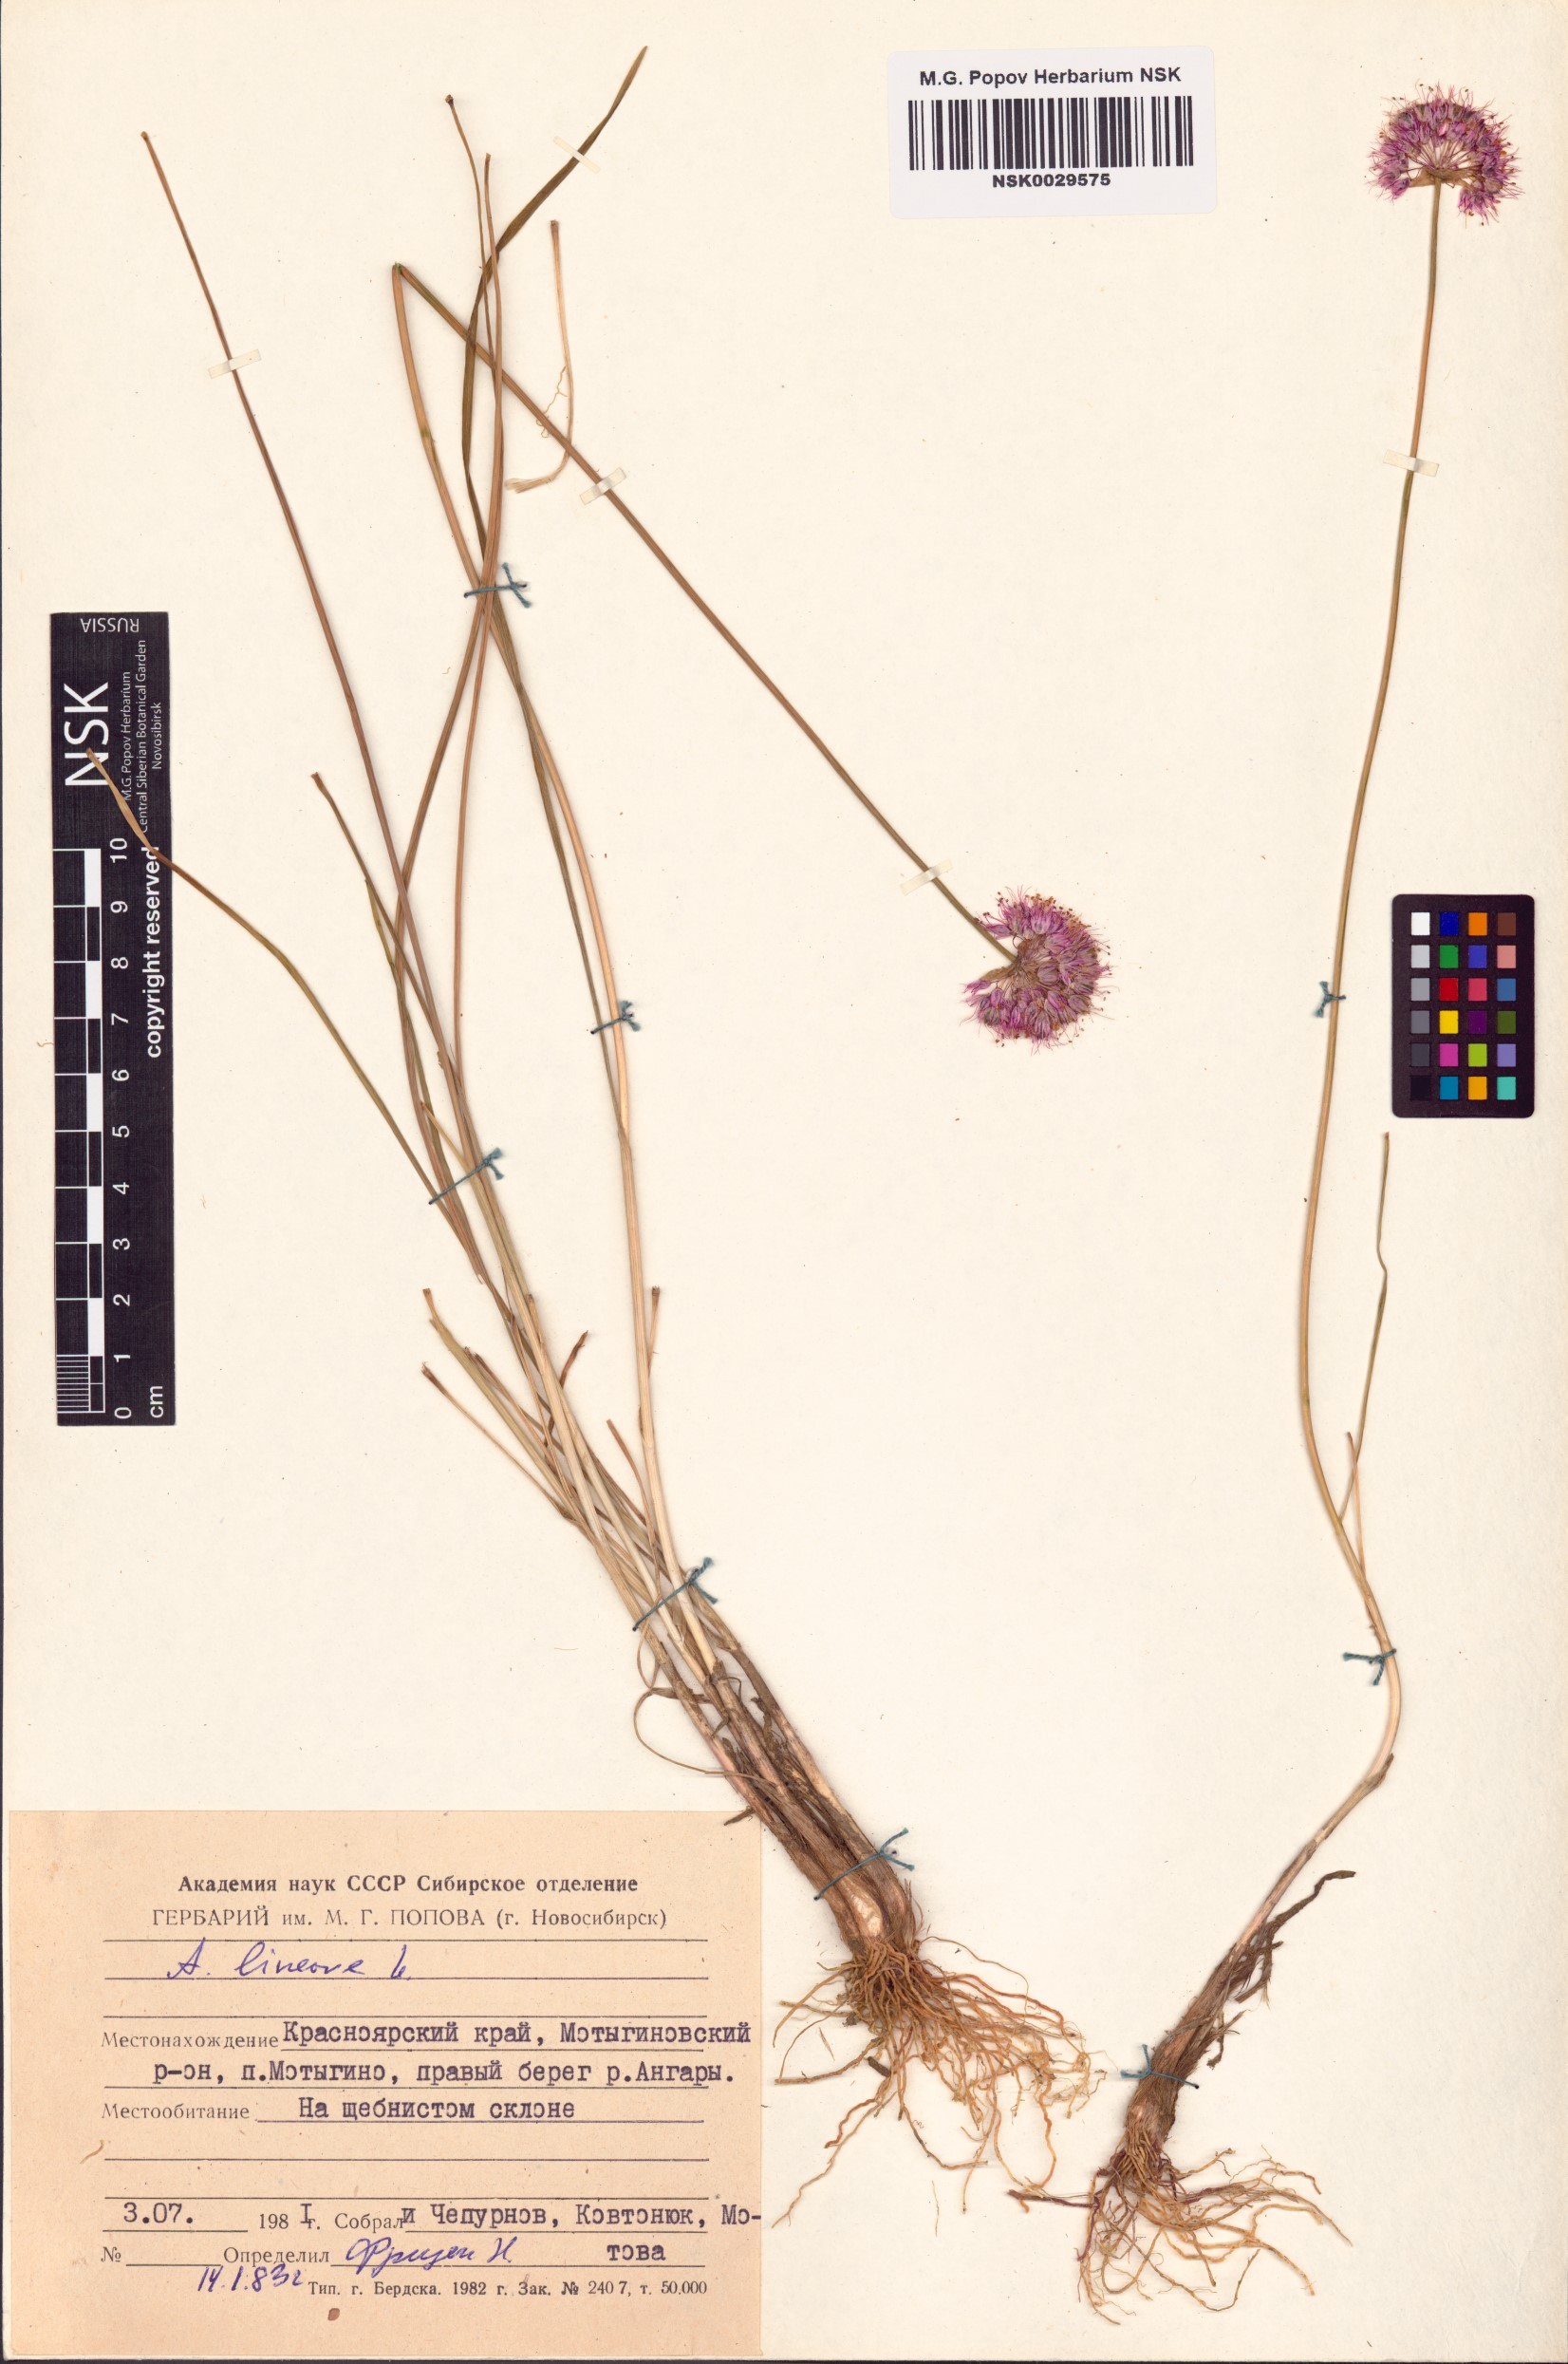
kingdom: Plantae
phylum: Tracheophyta
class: Liliopsida
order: Asparagales
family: Amaryllidaceae
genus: Allium
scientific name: Allium lineare
